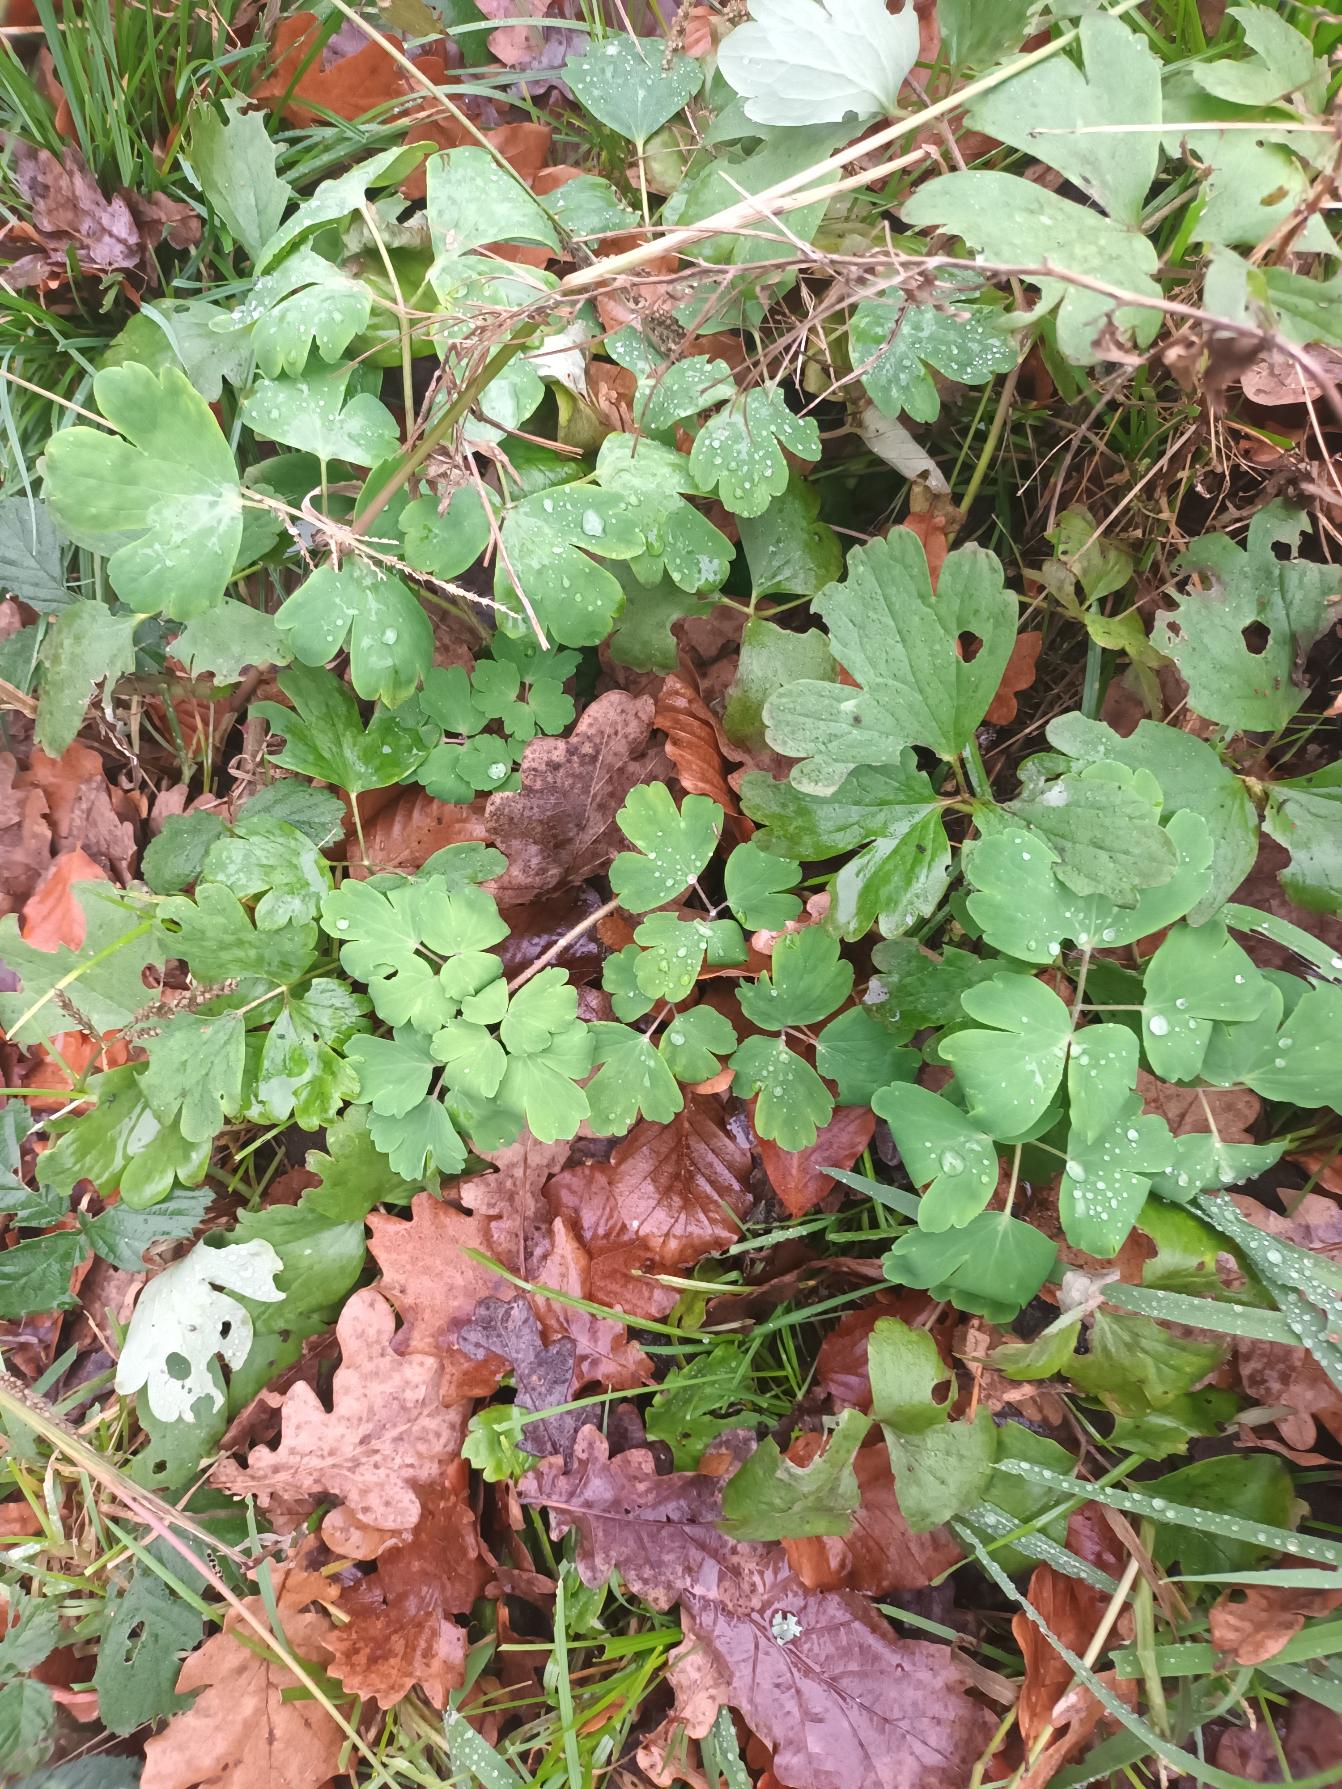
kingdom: Plantae
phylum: Tracheophyta
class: Magnoliopsida
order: Ranunculales
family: Ranunculaceae
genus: Aquilegia
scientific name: Aquilegia vulgaris
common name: Akeleje
